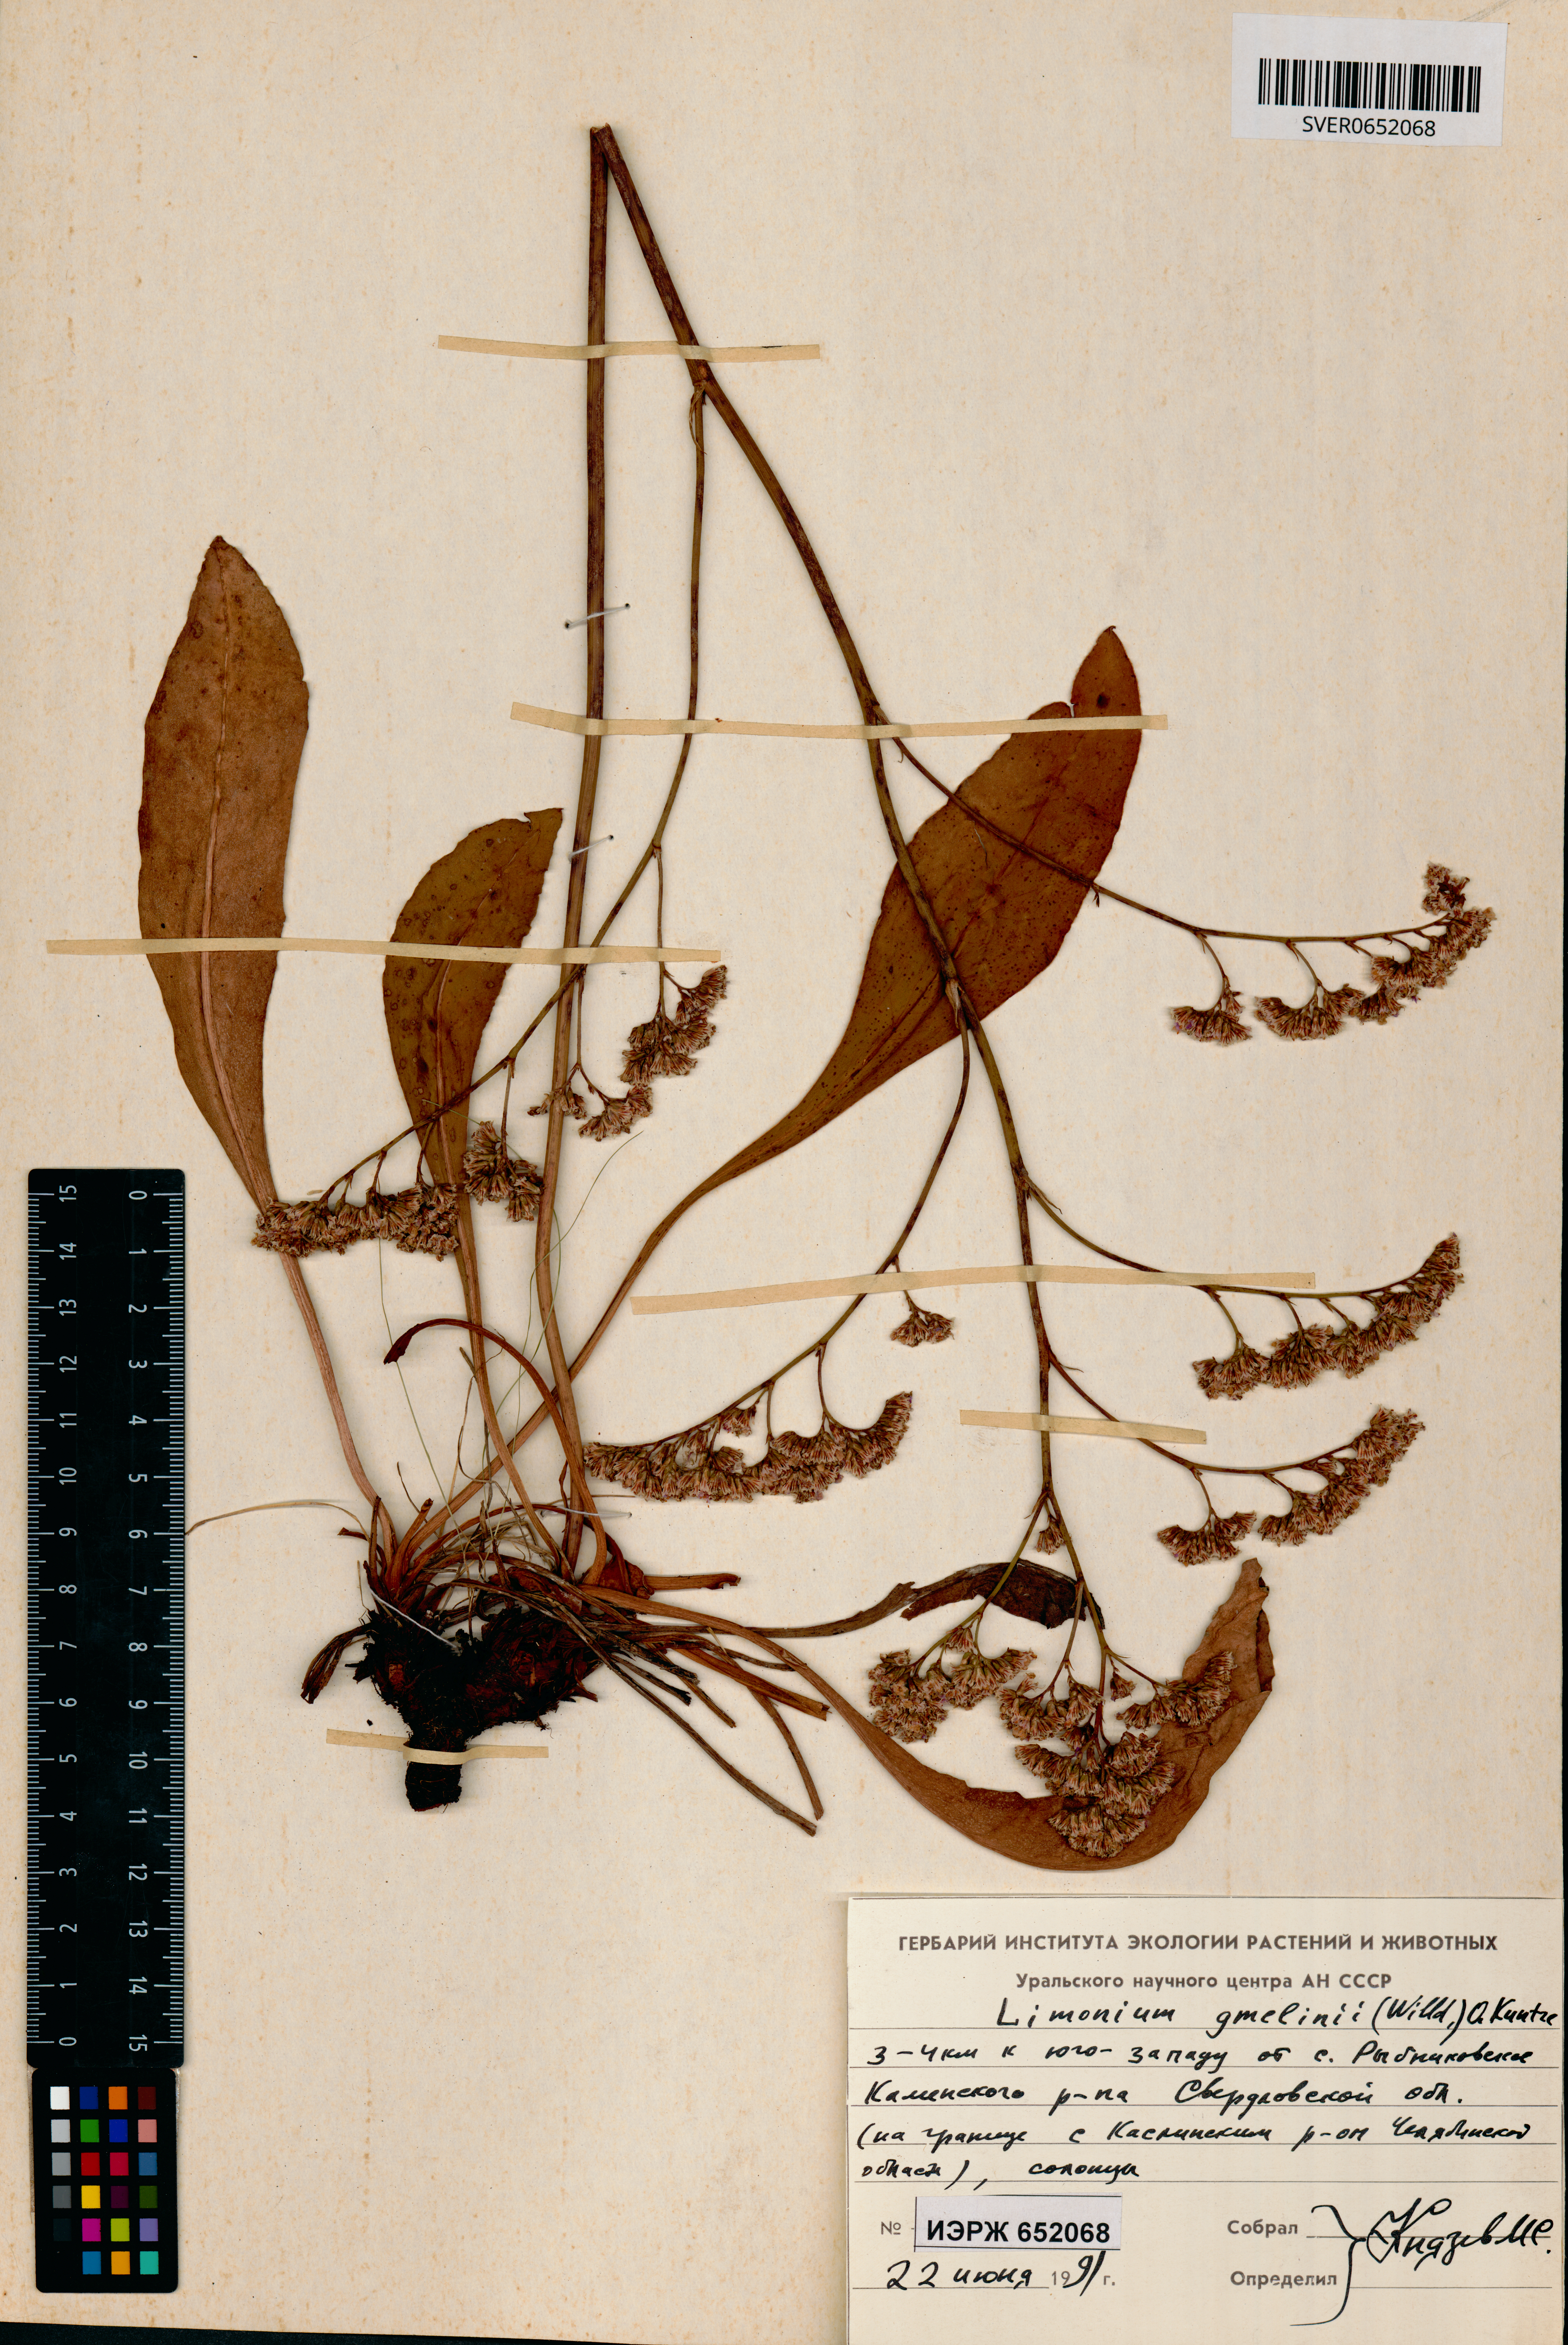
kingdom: Plantae
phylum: Tracheophyta
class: Magnoliopsida
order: Caryophyllales
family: Plumbaginaceae
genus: Limonium
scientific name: Limonium gmelini
